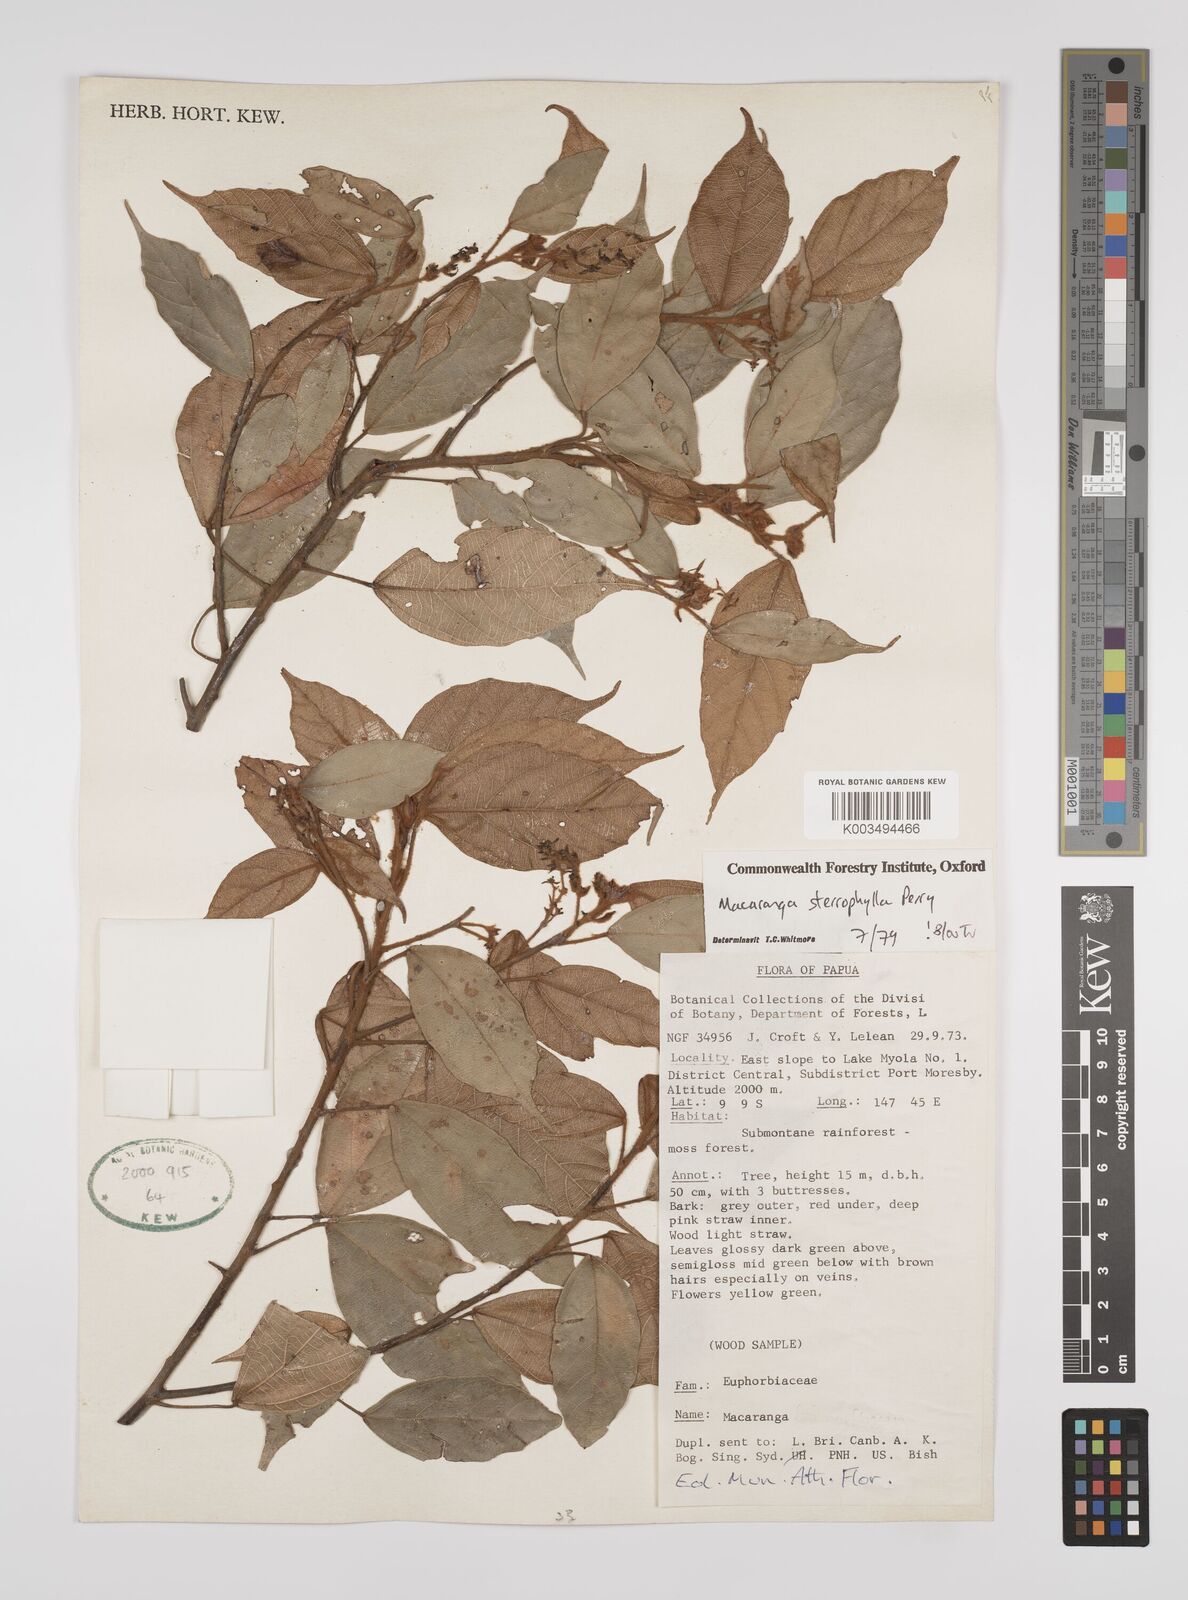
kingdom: Plantae
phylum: Tracheophyta
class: Magnoliopsida
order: Malpighiales
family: Euphorbiaceae
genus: Macaranga
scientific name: Macaranga stenophylla
